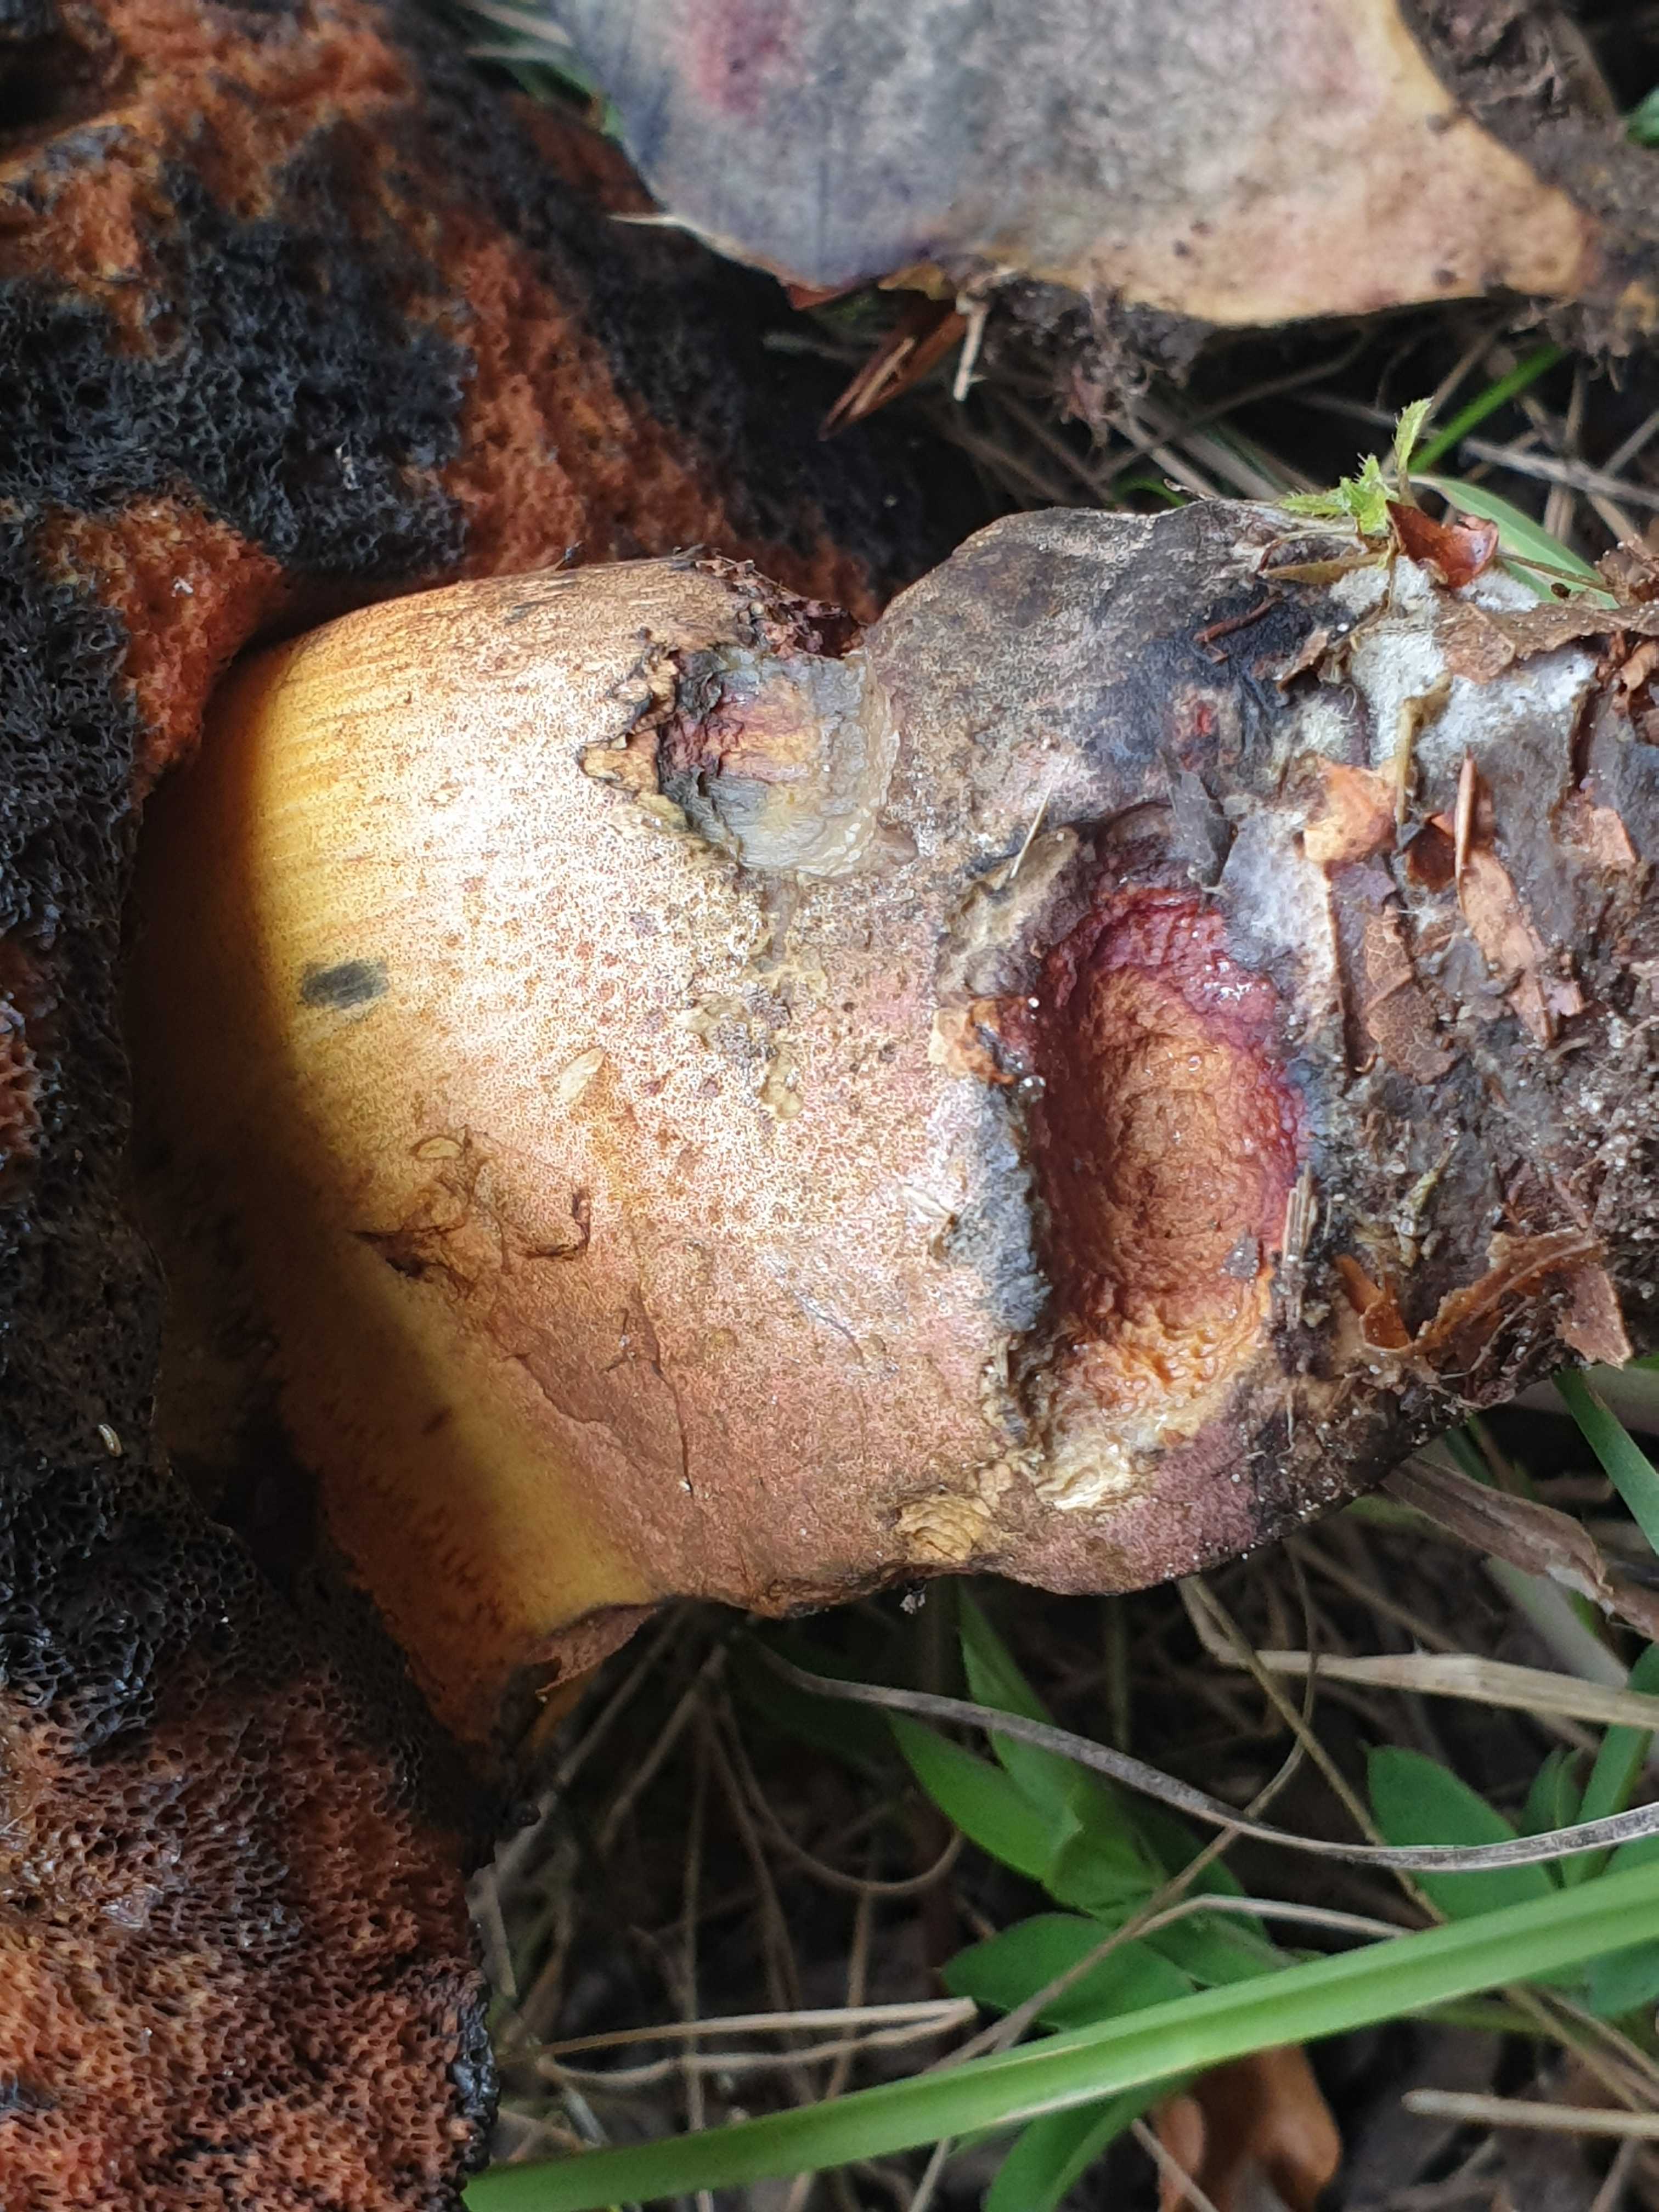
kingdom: Fungi
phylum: Basidiomycota
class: Agaricomycetes
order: Boletales
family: Boletaceae
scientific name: Boletaceae
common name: rørhatfamilien
